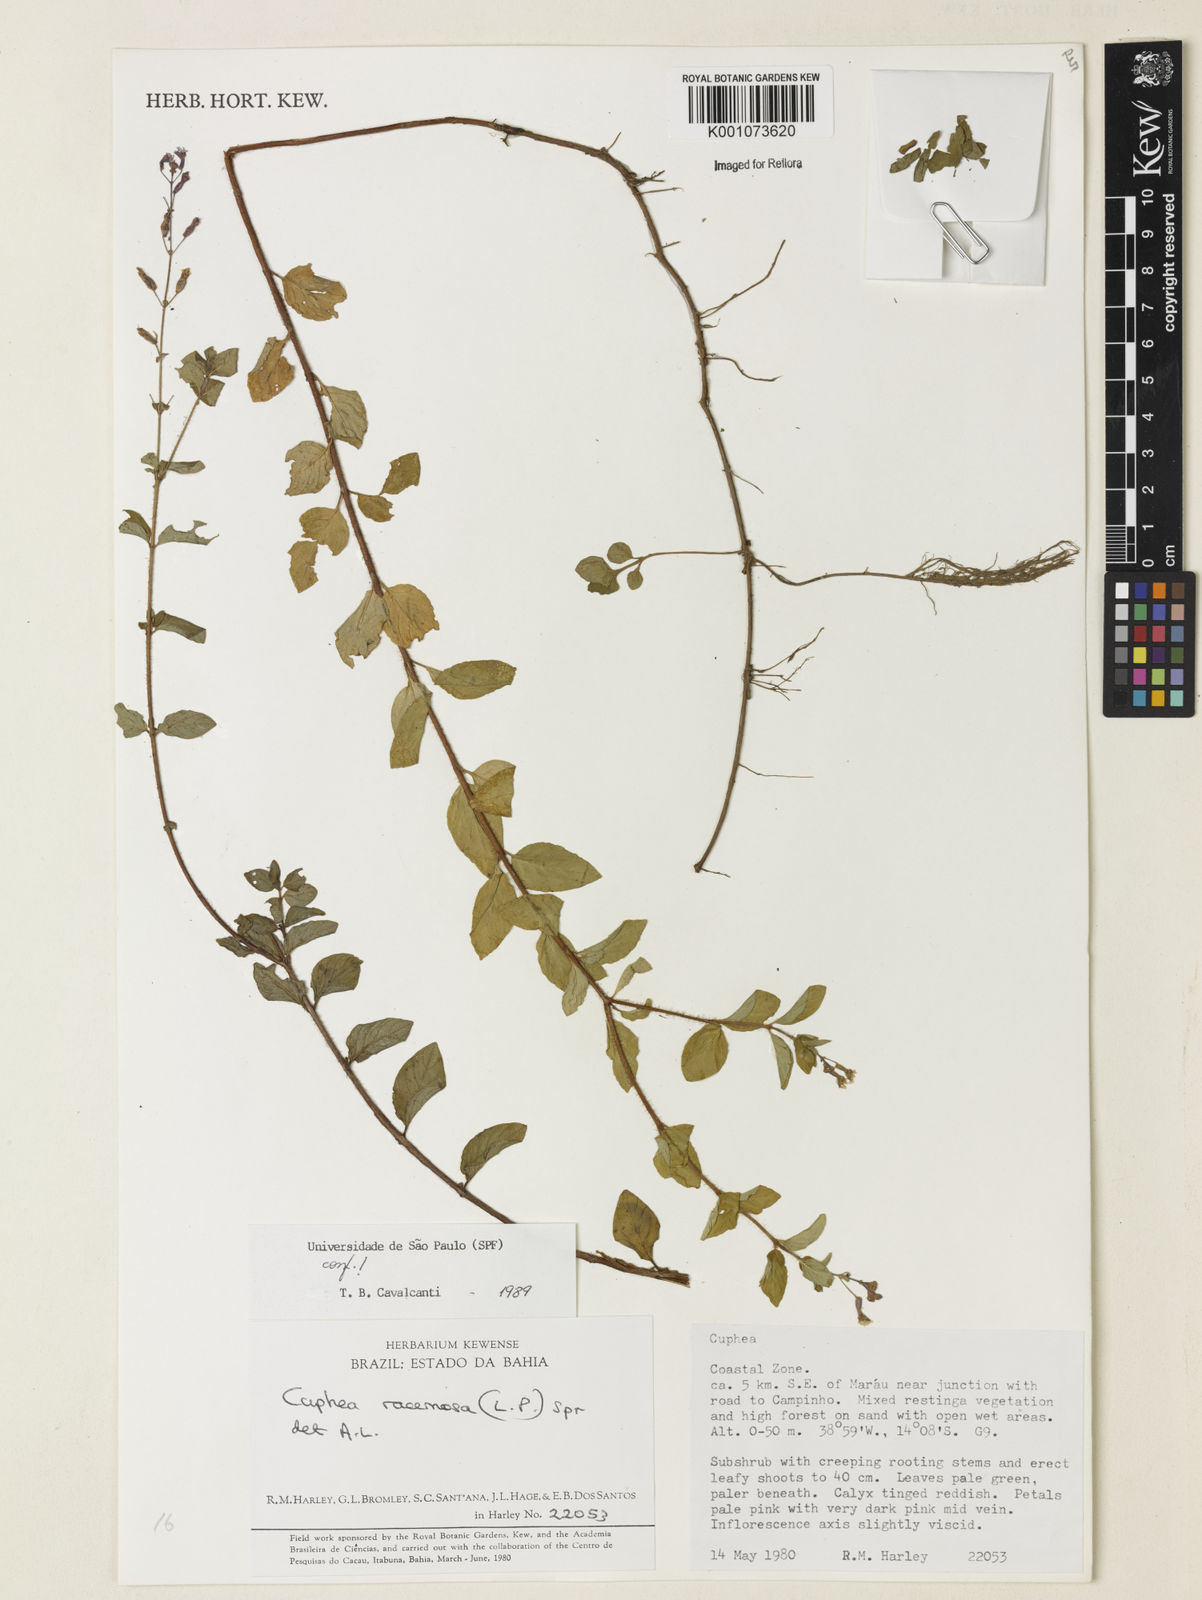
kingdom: Plantae
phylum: Tracheophyta
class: Magnoliopsida
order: Myrtales
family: Lythraceae
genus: Cuphea
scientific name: Cuphea racemosa
